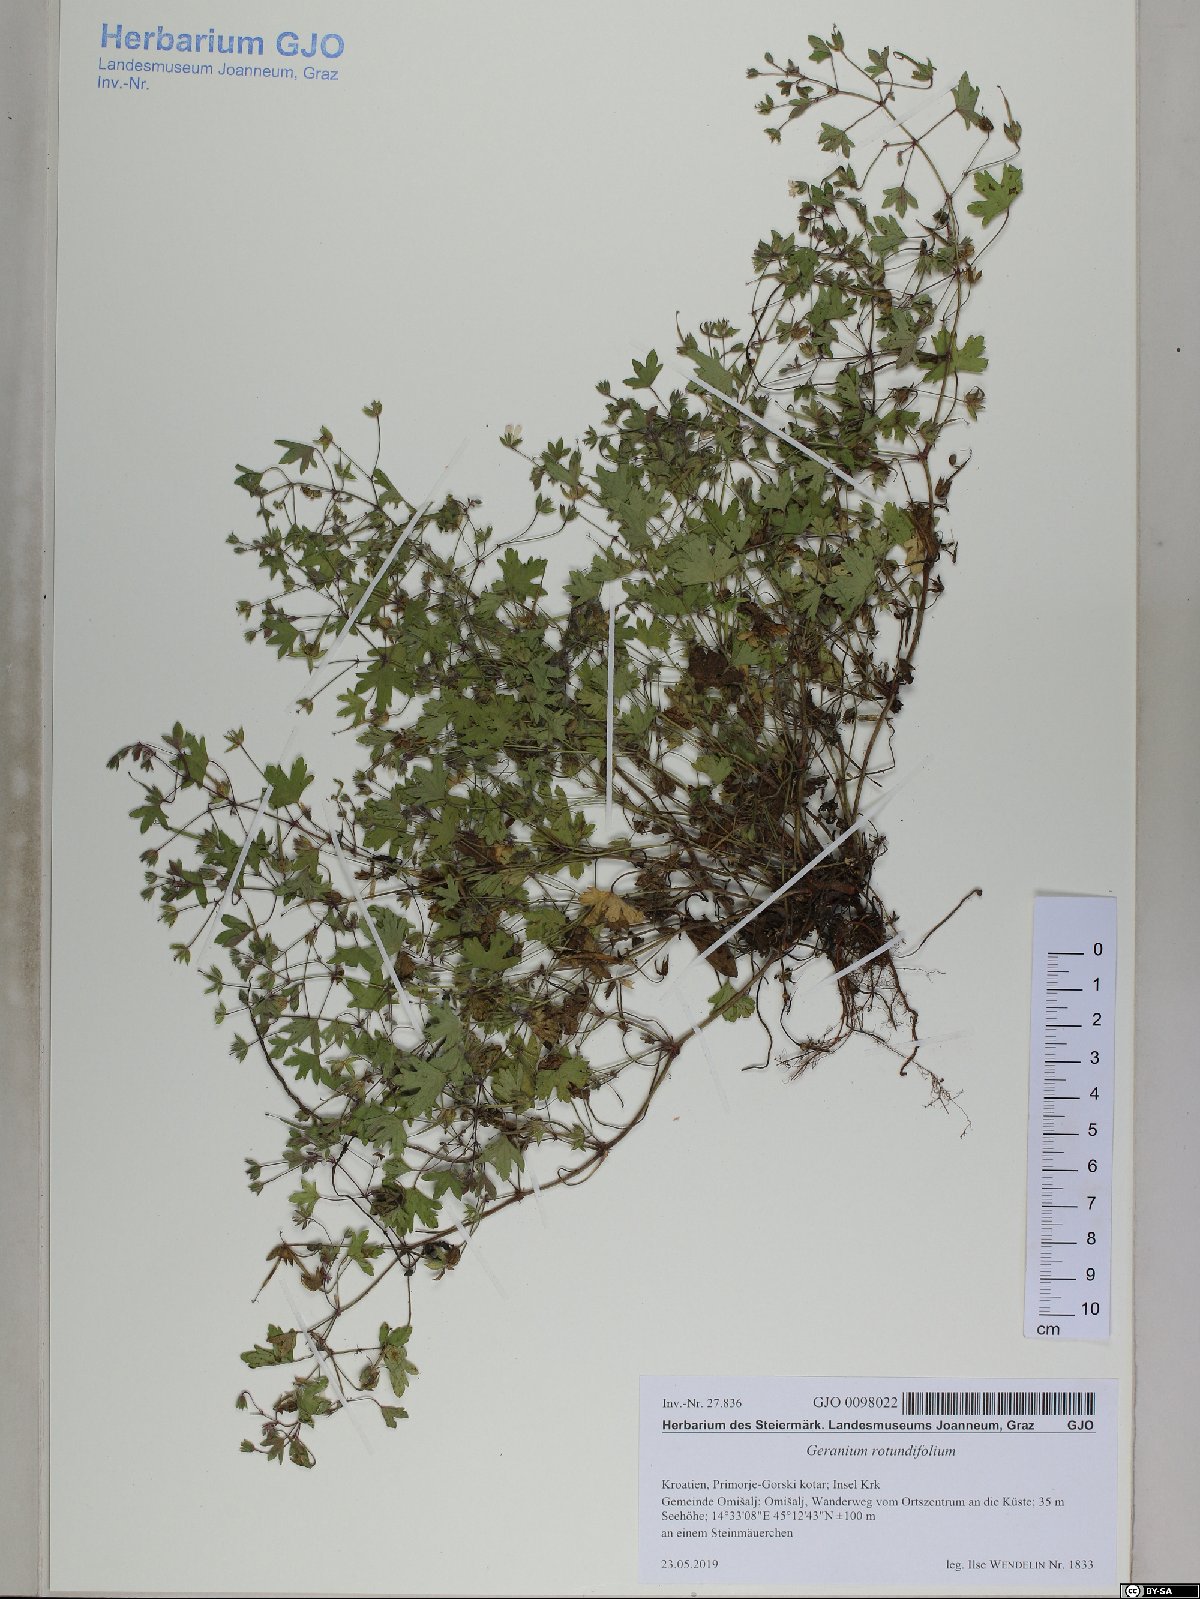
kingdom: Plantae
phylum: Tracheophyta
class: Magnoliopsida
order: Geraniales
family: Geraniaceae
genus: Geranium
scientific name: Geranium rotundifolium
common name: Round-leaved crane's-bill
